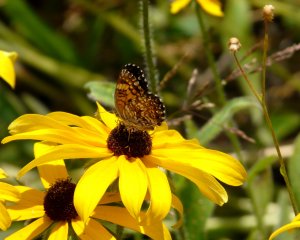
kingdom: Animalia
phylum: Arthropoda
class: Insecta
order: Lepidoptera
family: Nymphalidae
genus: Chlosyne
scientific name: Chlosyne gorgone
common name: Gorgone Checkerspot
